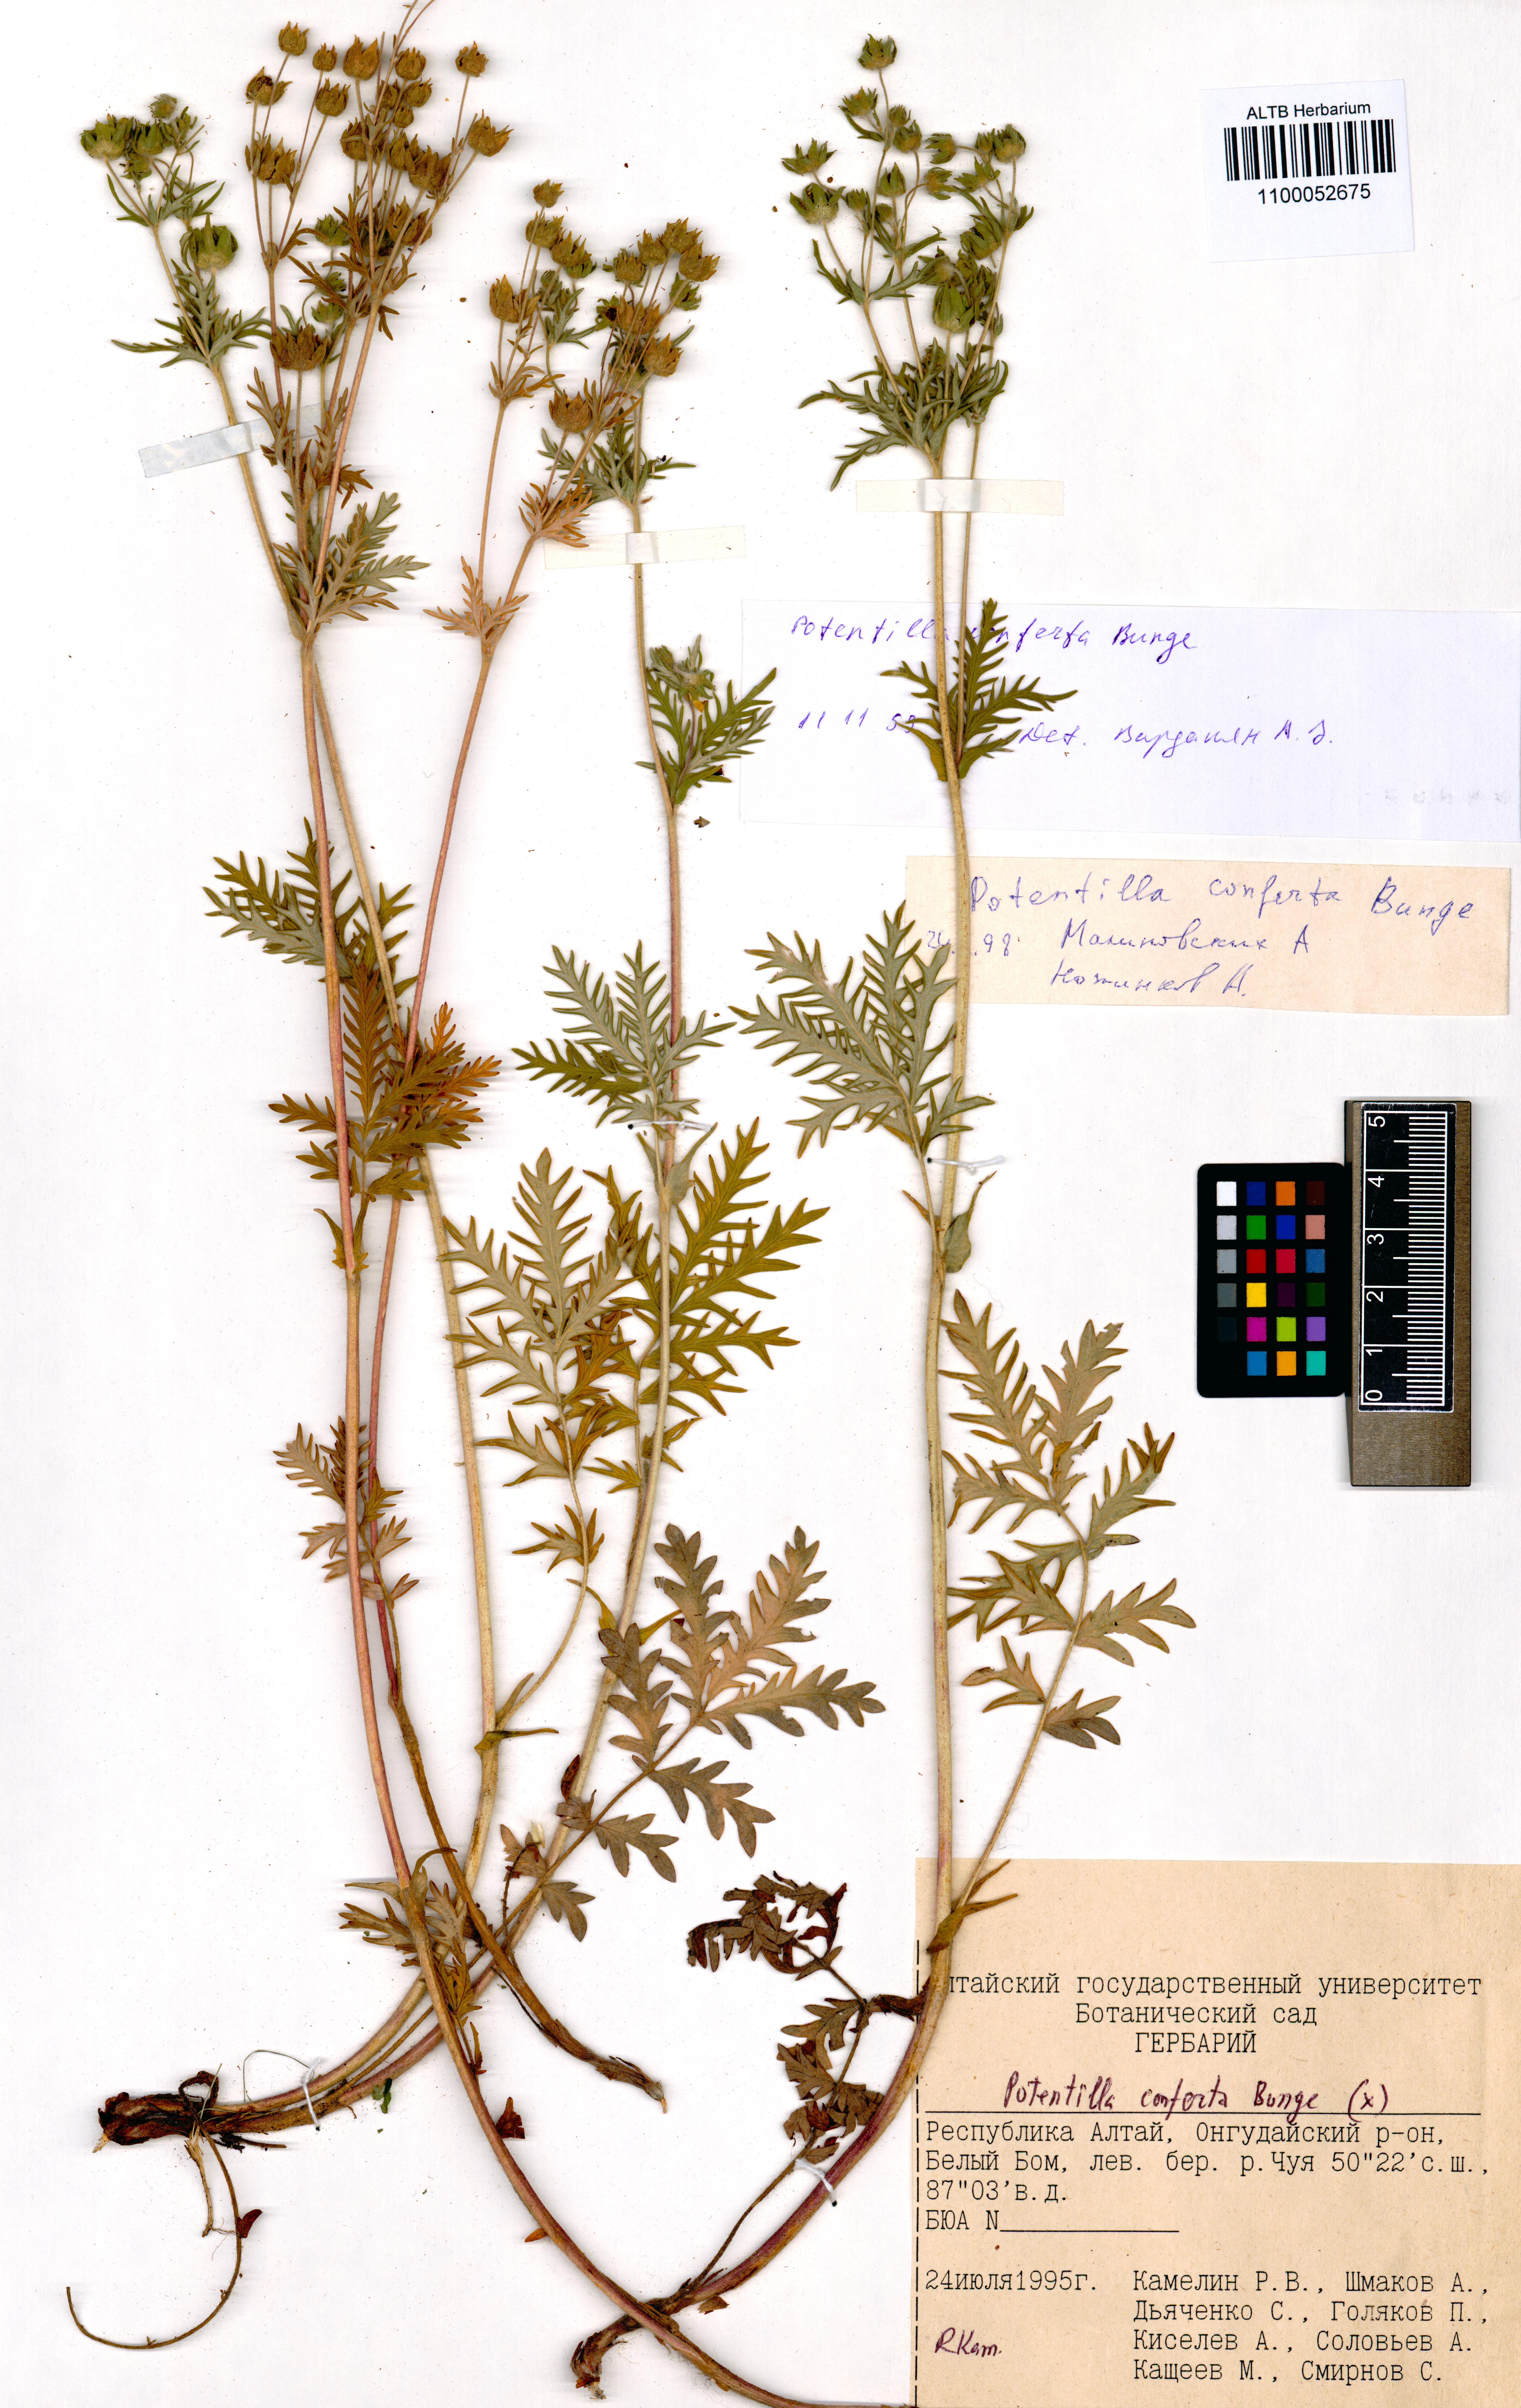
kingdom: Plantae
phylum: Tracheophyta
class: Magnoliopsida
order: Rosales
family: Rosaceae
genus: Potentilla
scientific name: Potentilla conferta
